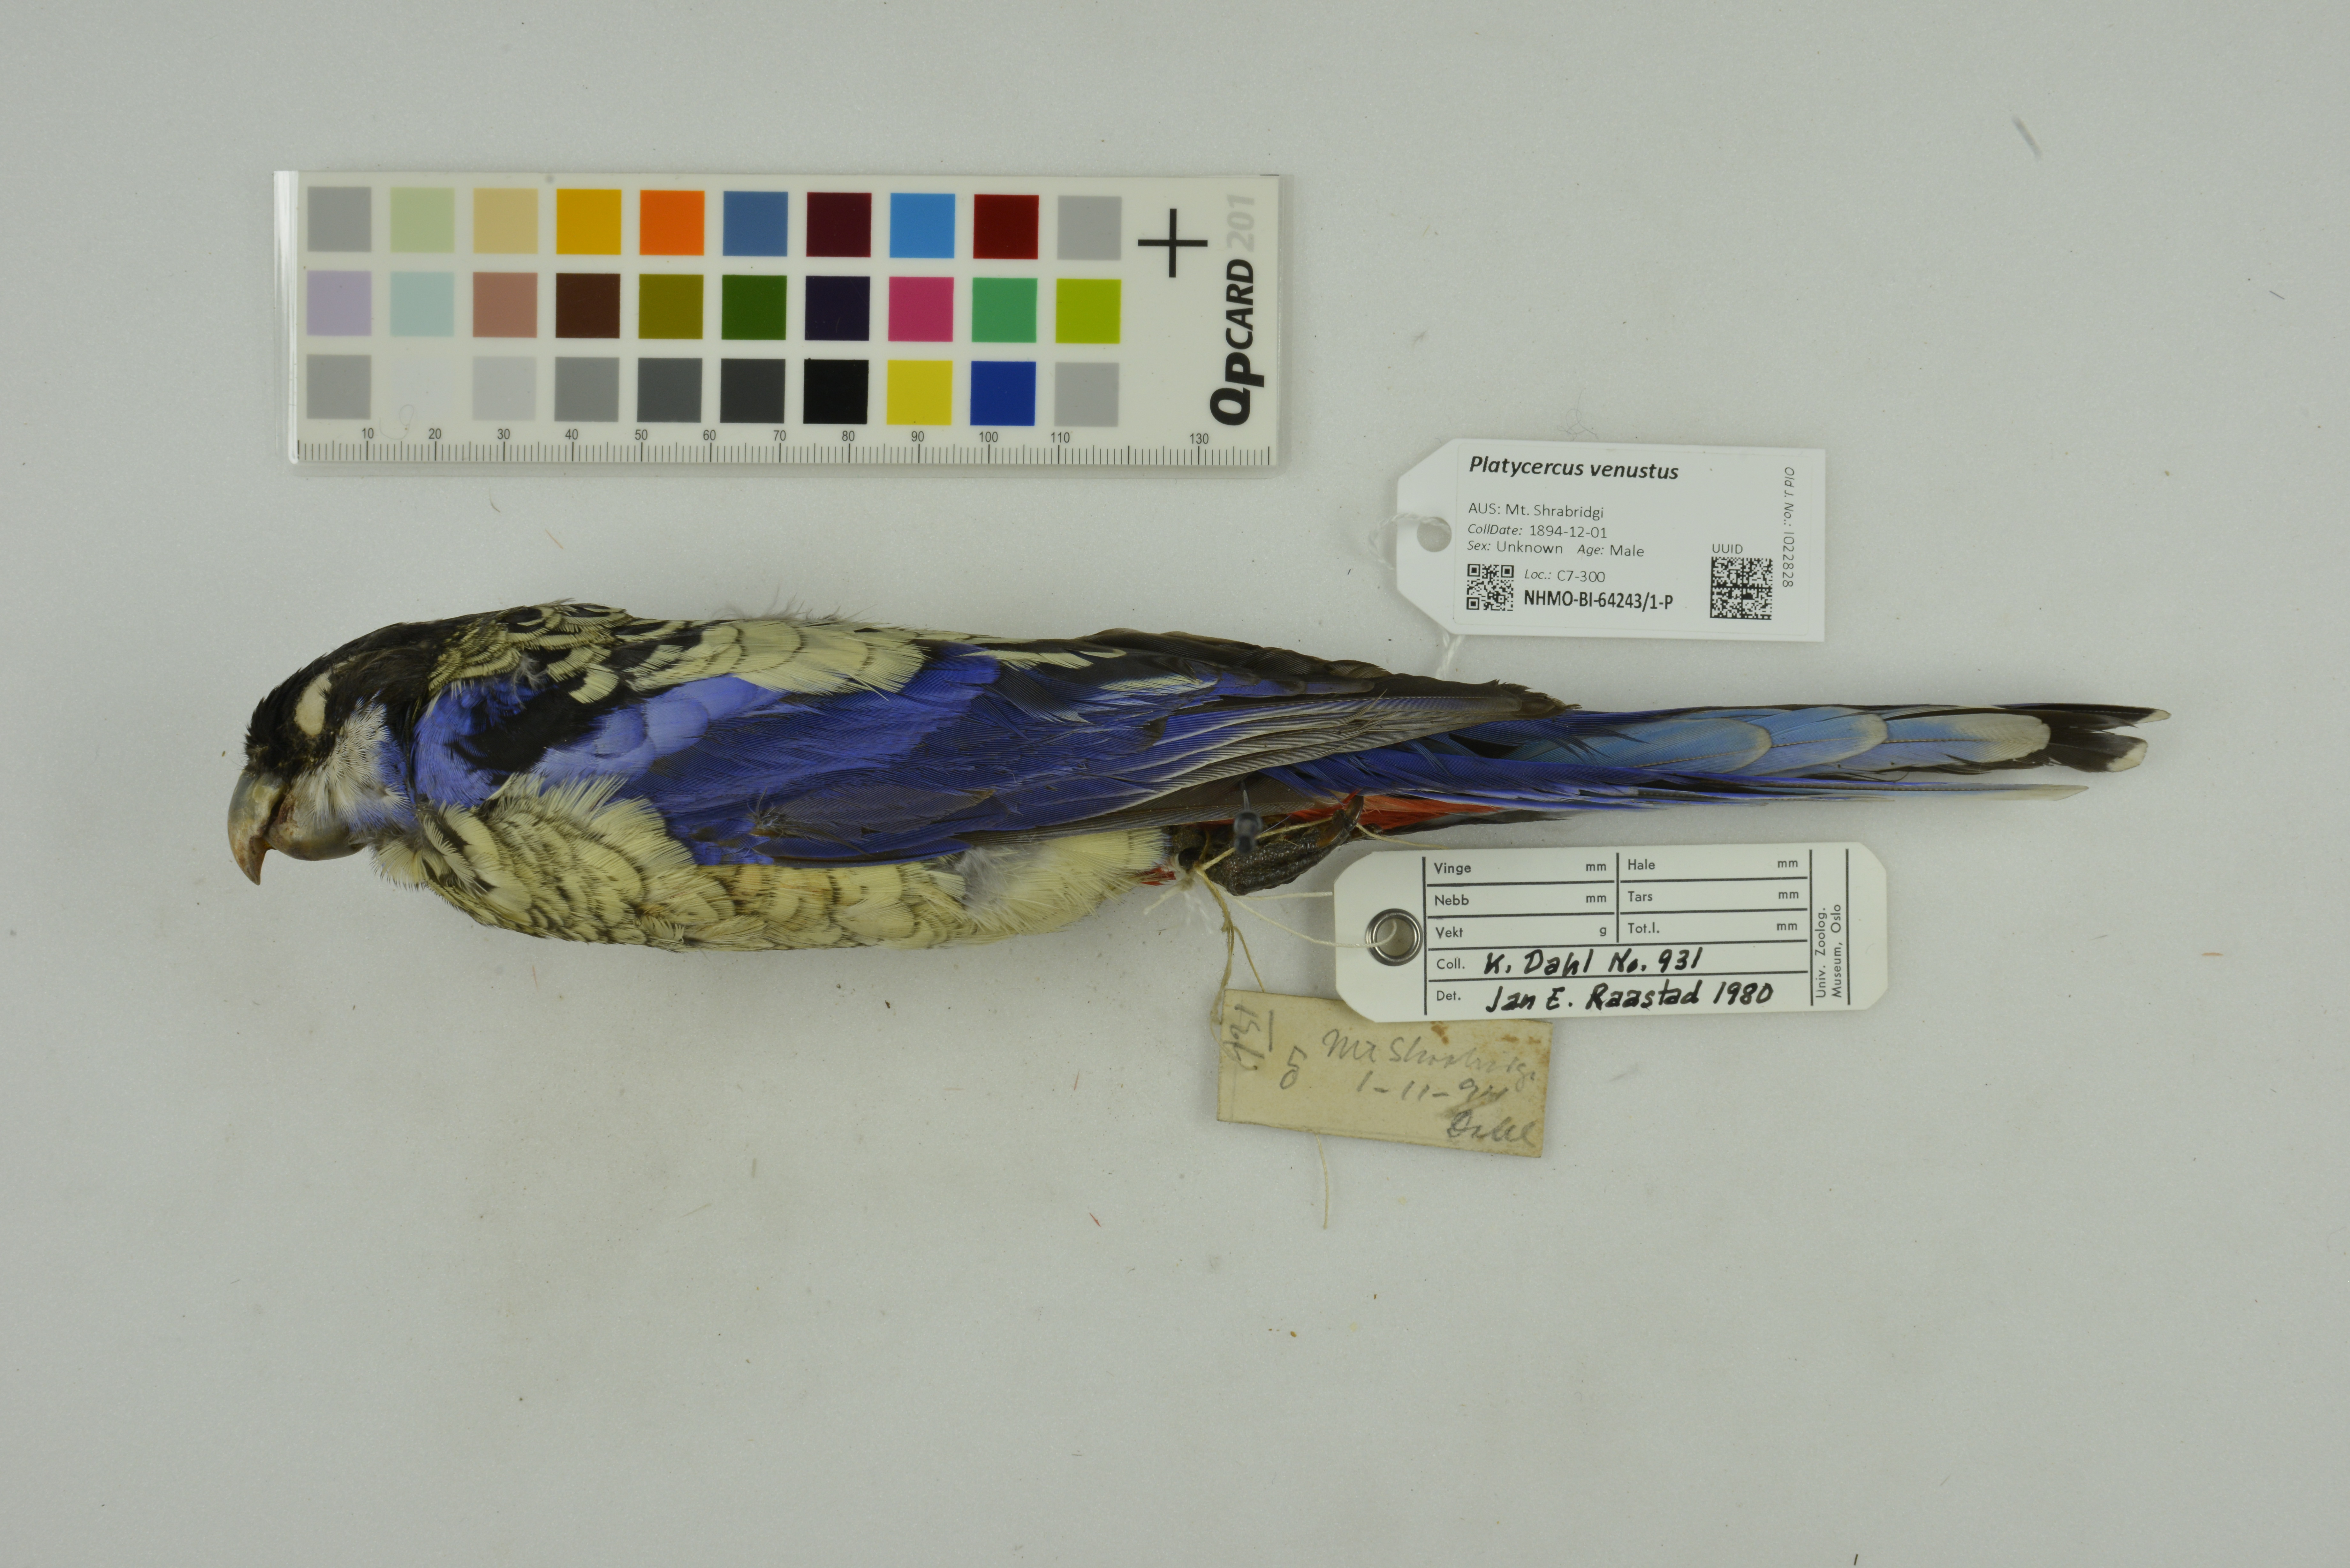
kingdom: Animalia
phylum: Chordata
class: Aves
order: Psittaciformes
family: Psittacidae
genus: Platycercus
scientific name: Platycercus venustus
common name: Northern rosella
